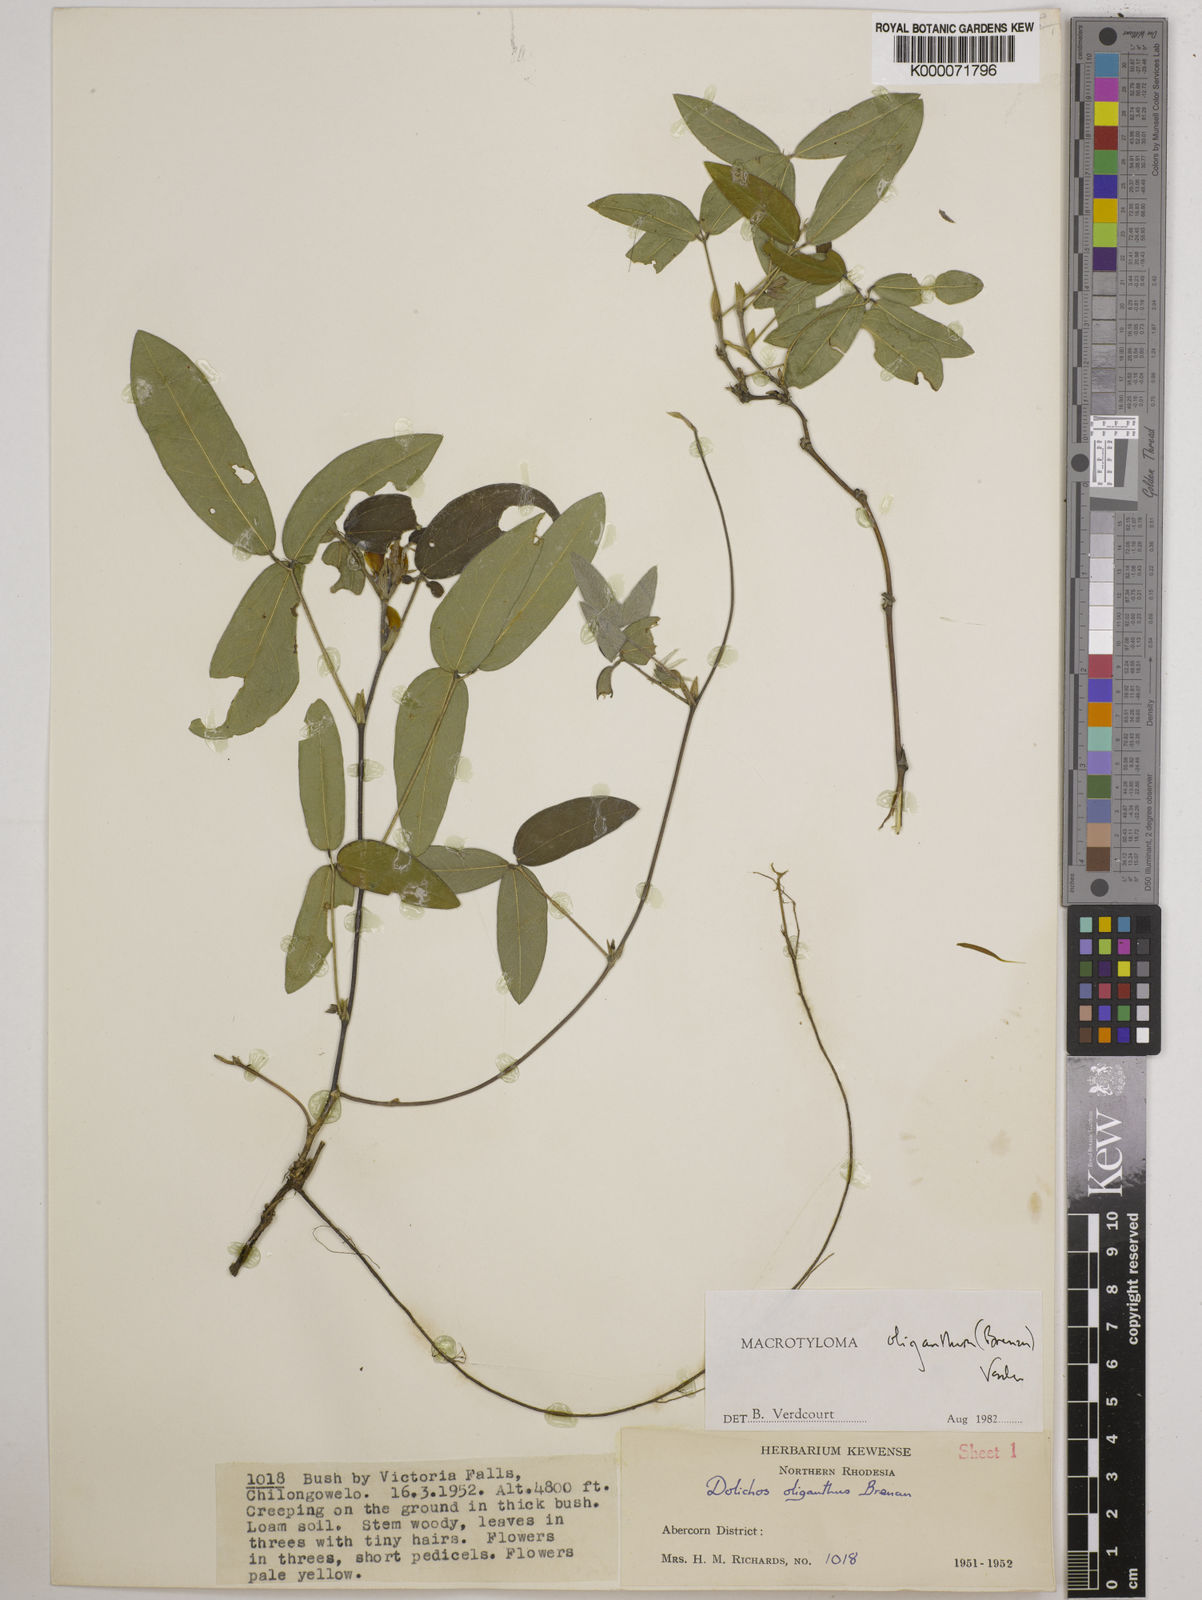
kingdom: Plantae
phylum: Tracheophyta
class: Magnoliopsida
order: Fabales
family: Fabaceae
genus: Macrotyloma
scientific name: Macrotyloma oliganthum
